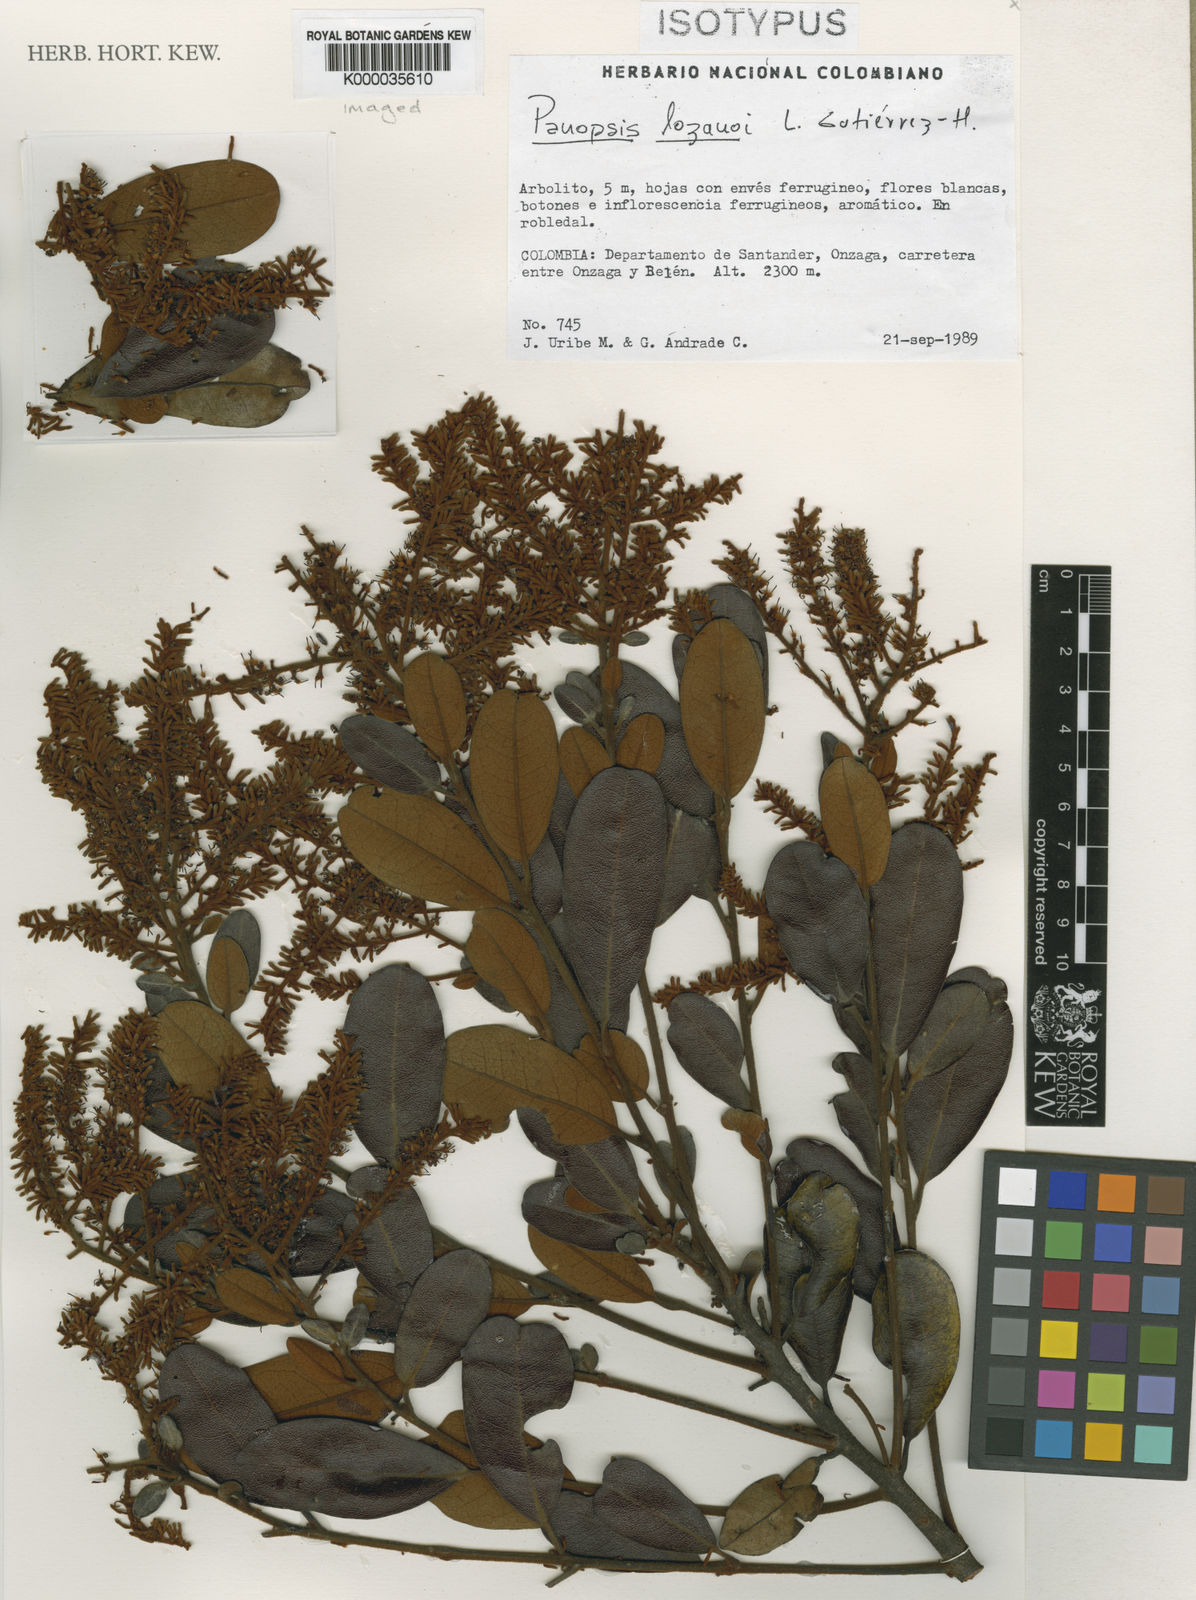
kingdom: Plantae
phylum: Tracheophyta
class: Magnoliopsida
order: Proteales
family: Proteaceae
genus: Panopsis
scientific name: Panopsis
